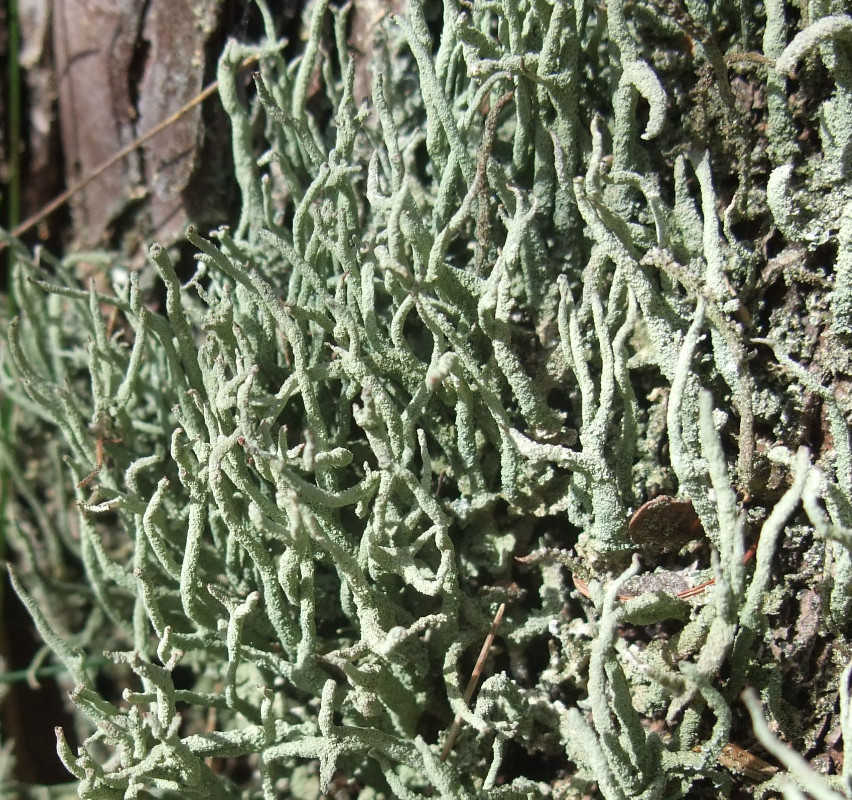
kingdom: Fungi
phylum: Ascomycota
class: Lecanoromycetes
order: Lecanorales
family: Cladoniaceae
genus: Cladonia
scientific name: Cladonia coniocraea
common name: træfods-bægerlav
